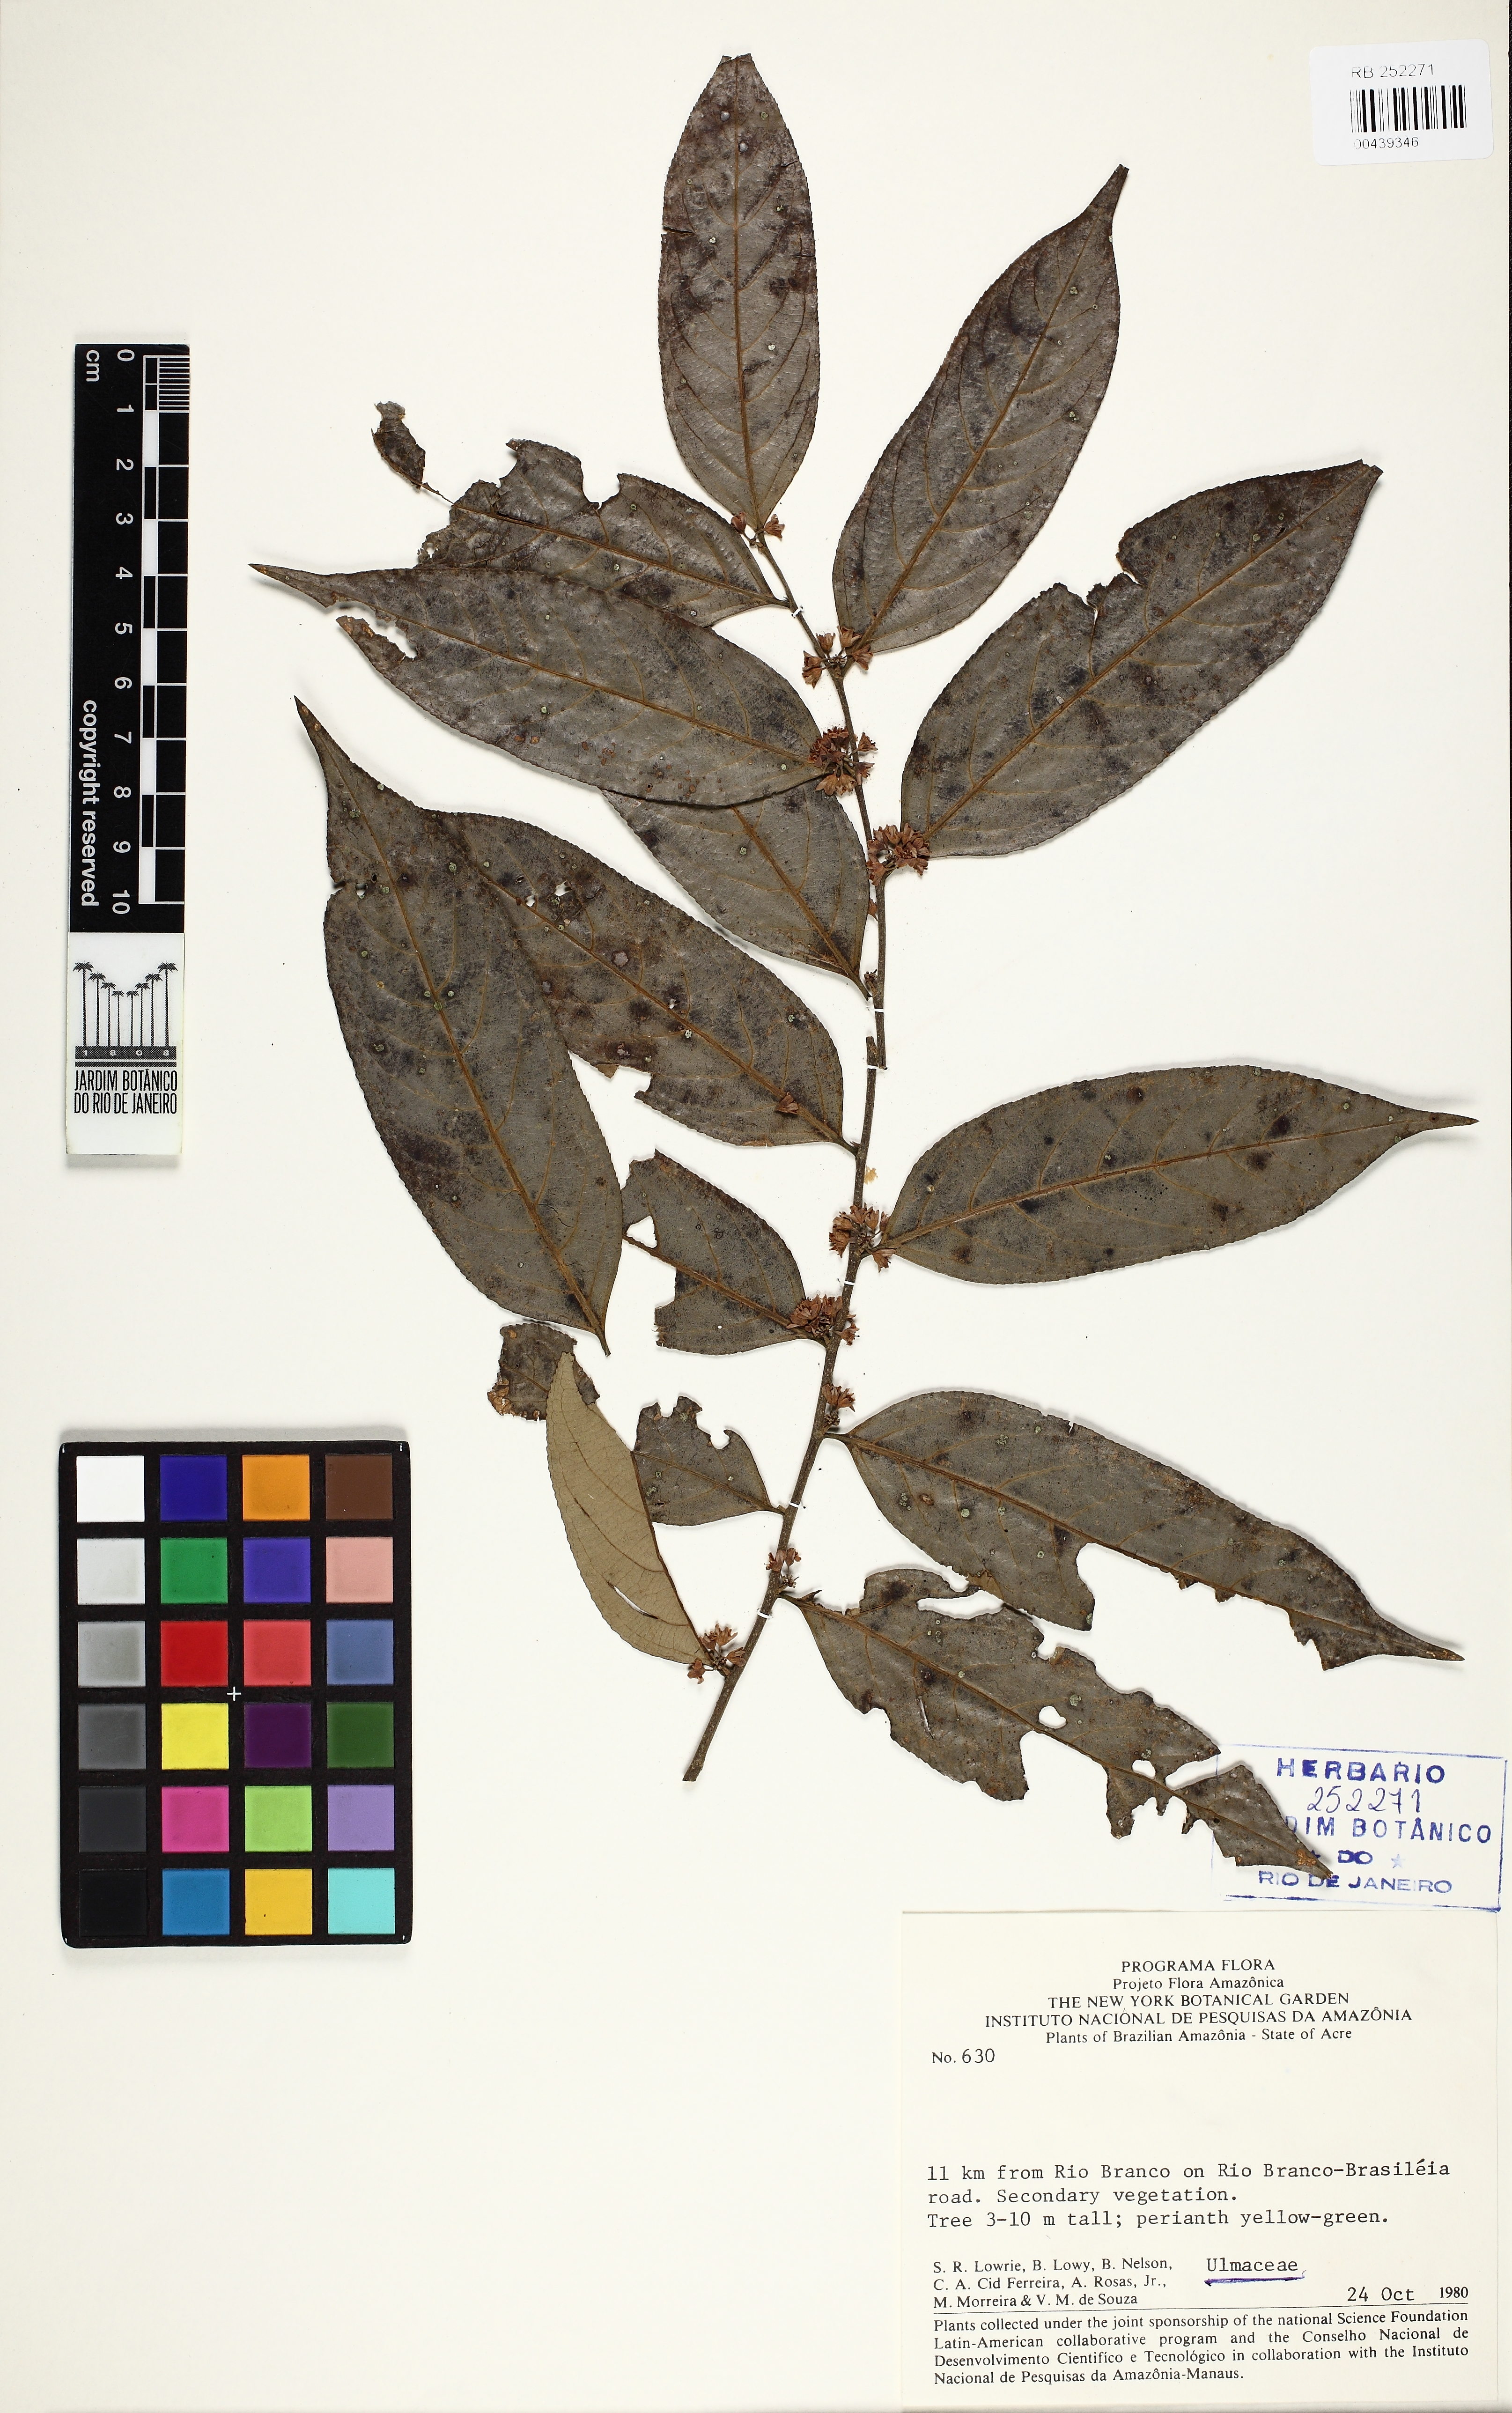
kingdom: Plantae
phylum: Tracheophyta
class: Magnoliopsida
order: Rosales
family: Ulmaceae
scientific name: Ulmaceae
